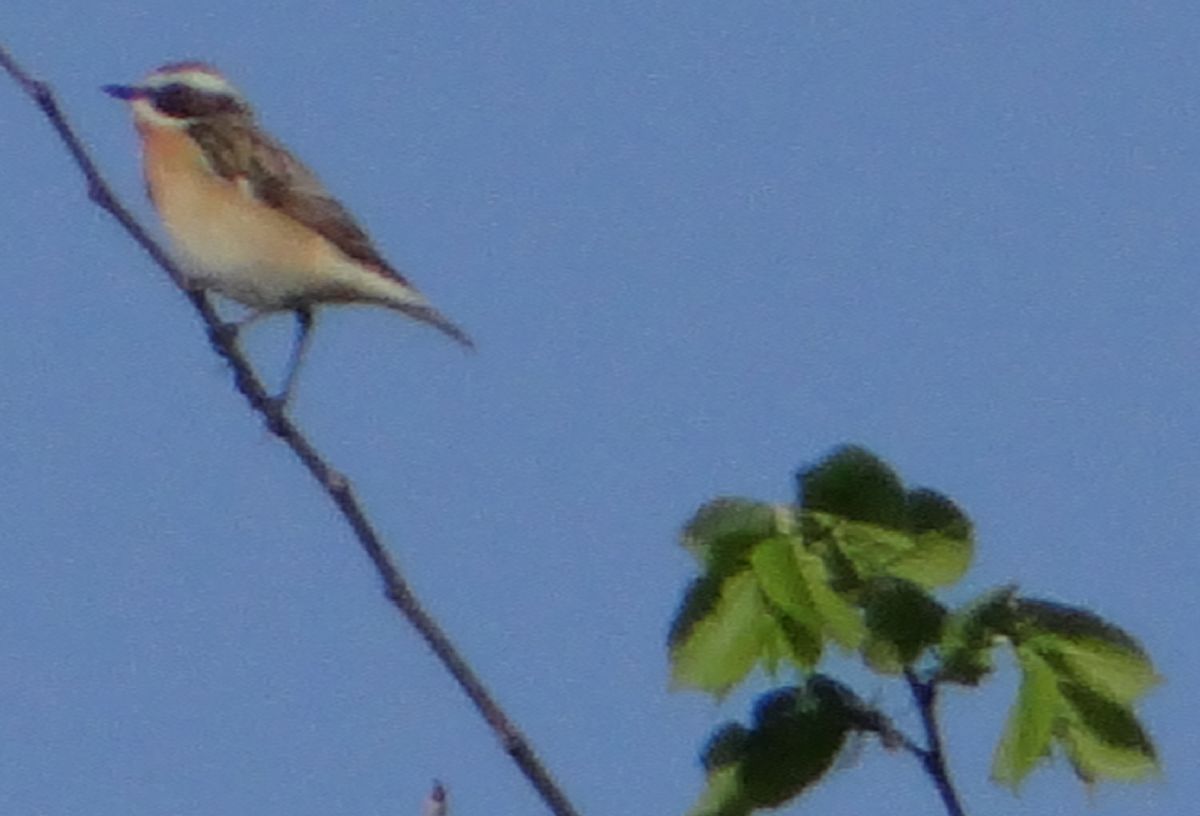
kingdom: Animalia
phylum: Chordata
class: Aves
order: Passeriformes
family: Muscicapidae
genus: Saxicola
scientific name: Saxicola rubetra
